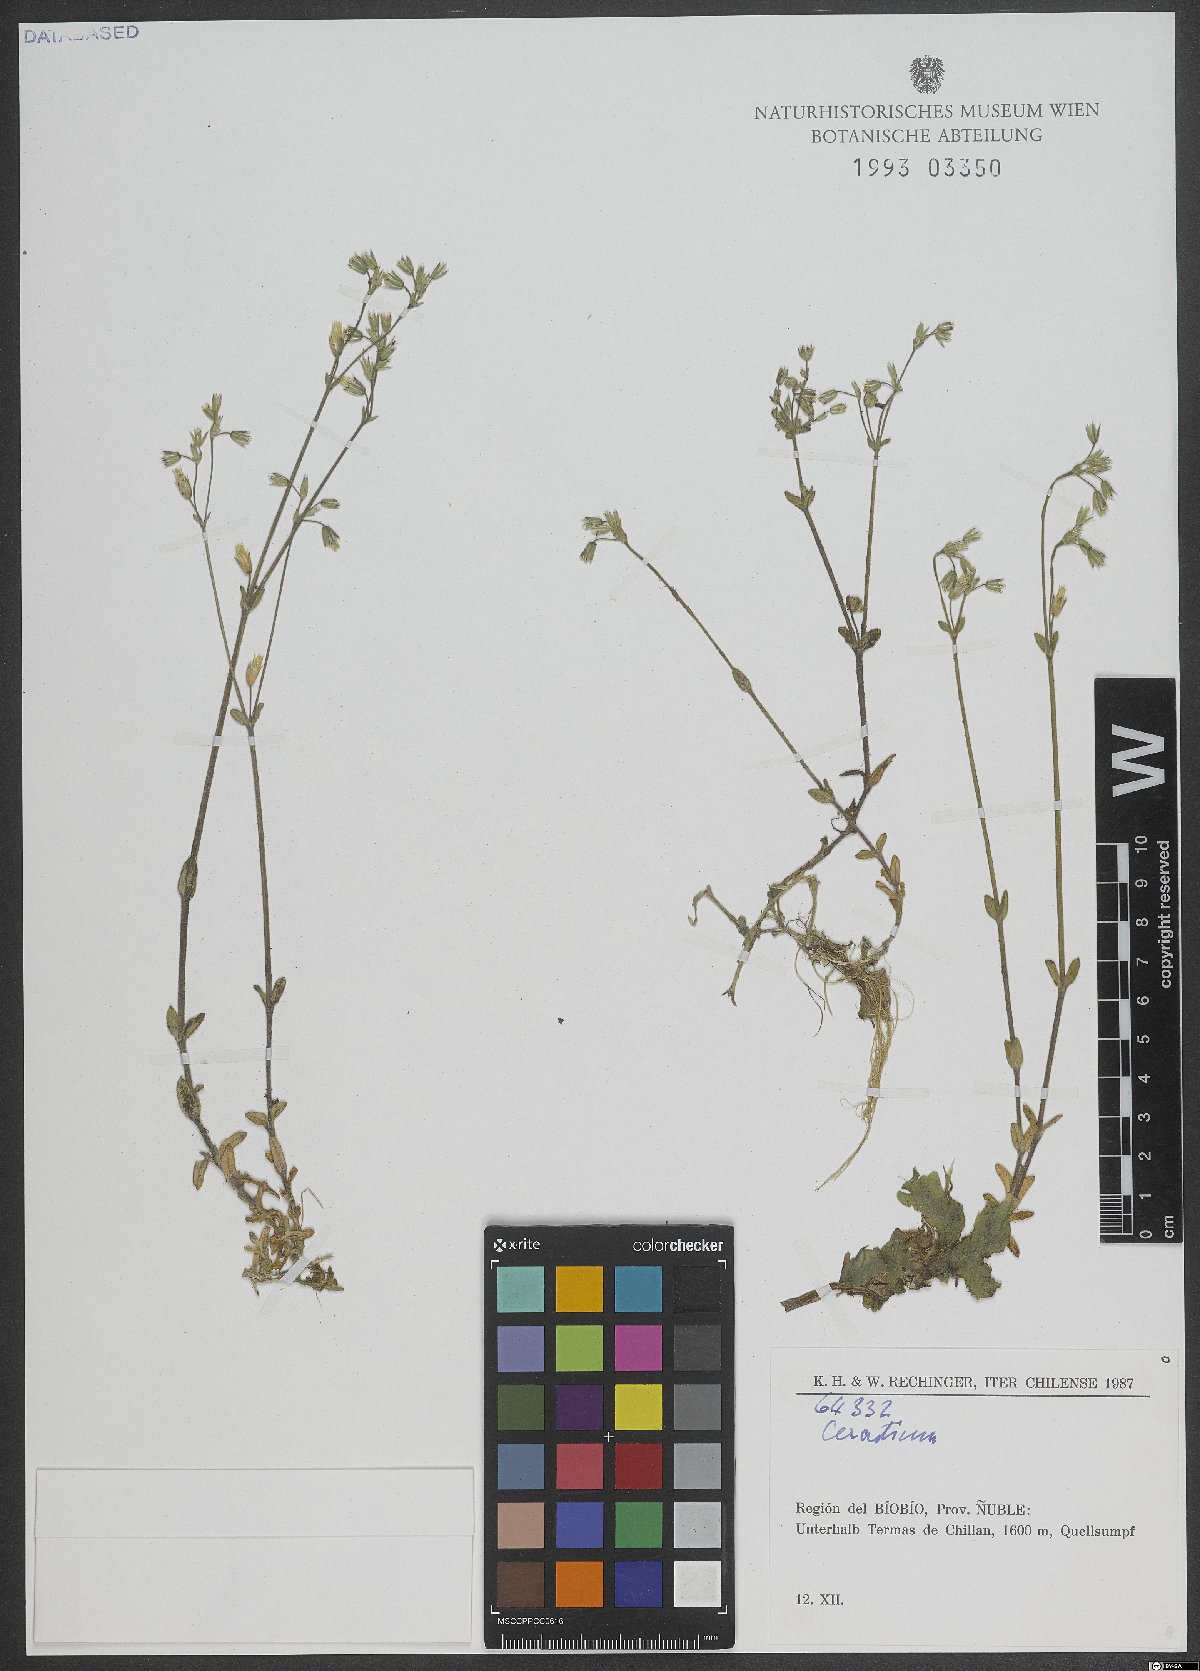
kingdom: Plantae
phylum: Tracheophyta
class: Magnoliopsida
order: Caryophyllales
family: Caryophyllaceae
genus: Cerastium
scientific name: Cerastium
